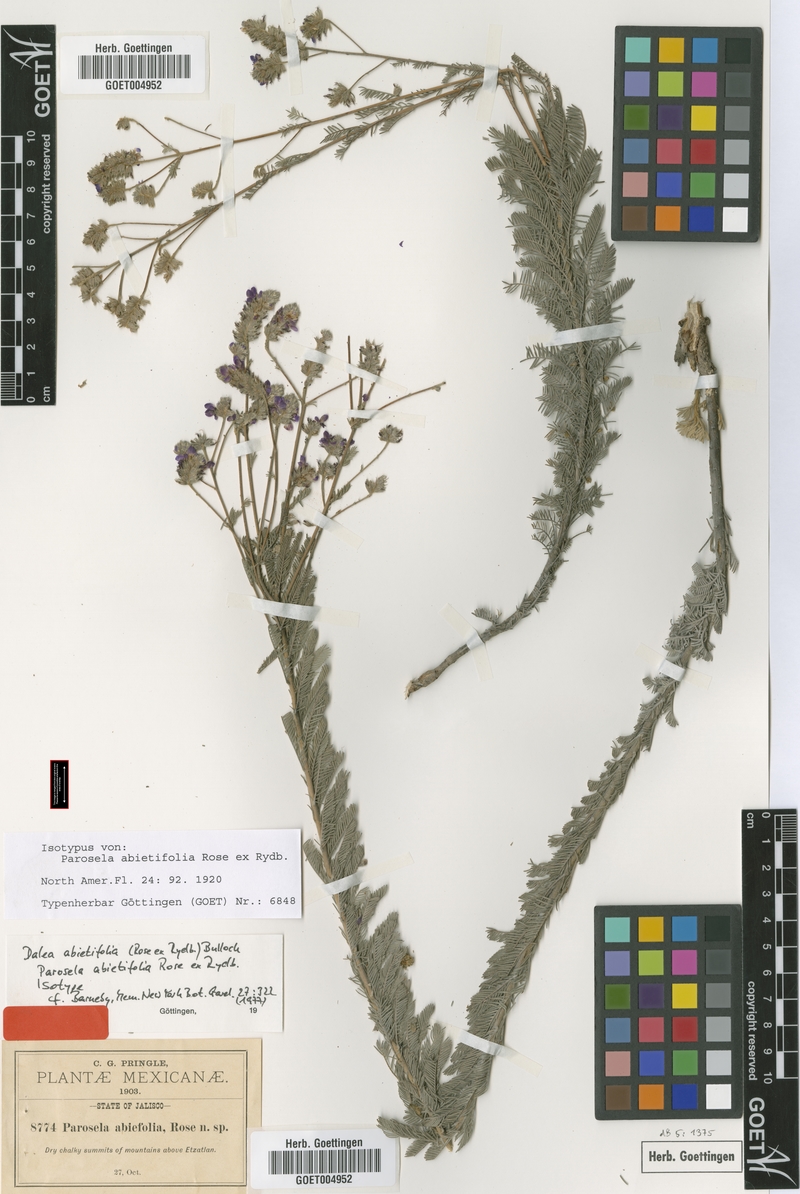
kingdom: Plantae
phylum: Tracheophyta
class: Magnoliopsida
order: Fabales
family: Fabaceae
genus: Dalea
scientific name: Dalea abietifolia
